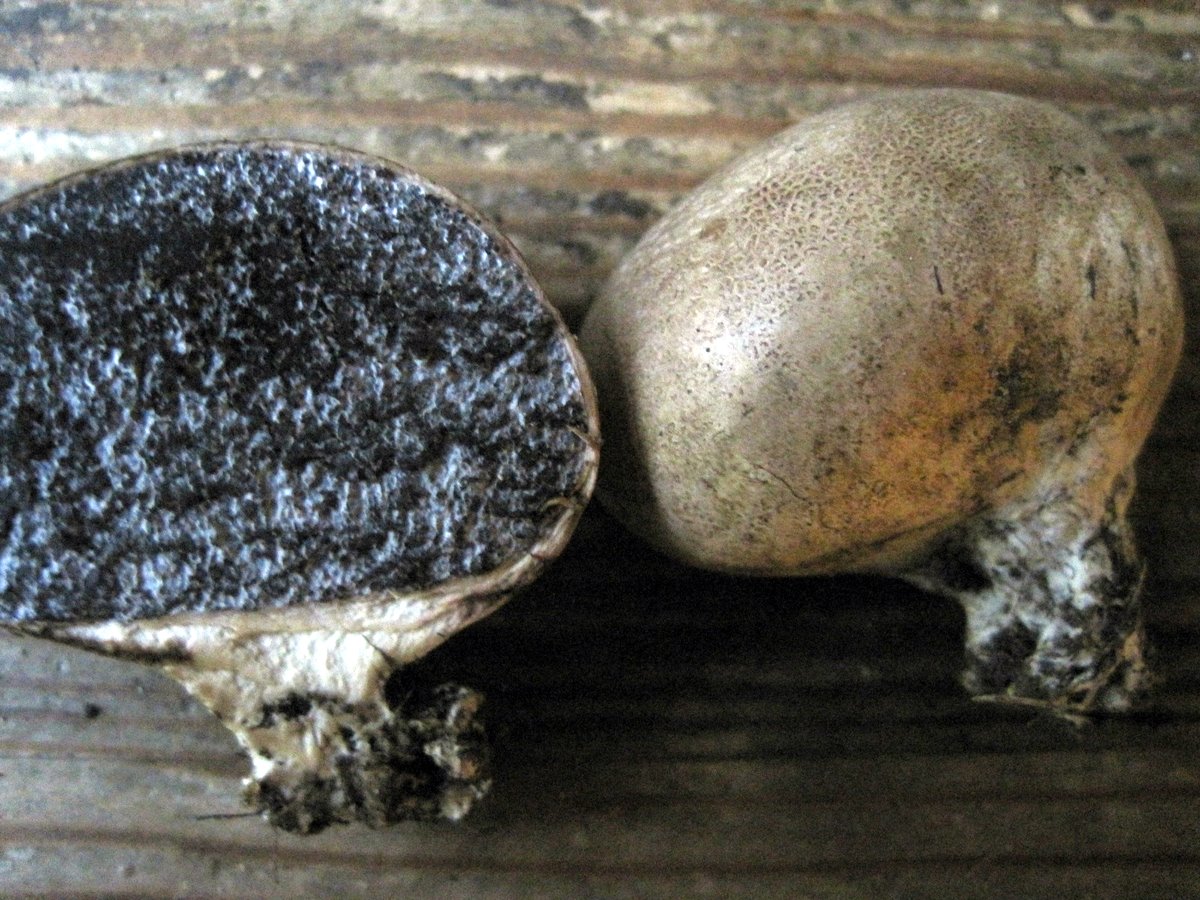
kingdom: Fungi
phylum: Basidiomycota
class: Agaricomycetes
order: Boletales
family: Sclerodermataceae
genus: Scleroderma
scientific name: Scleroderma bovista
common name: bovist-bruskbold
